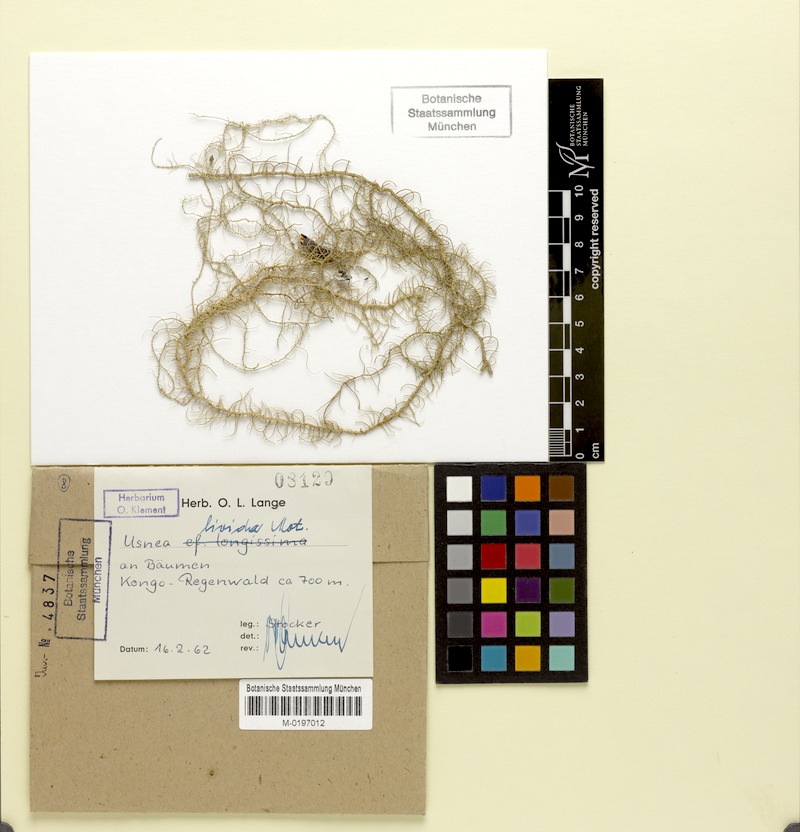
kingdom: Fungi
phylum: Ascomycota
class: Lecanoromycetes
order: Lecanorales
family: Parmeliaceae
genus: Usnea
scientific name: Usnea
